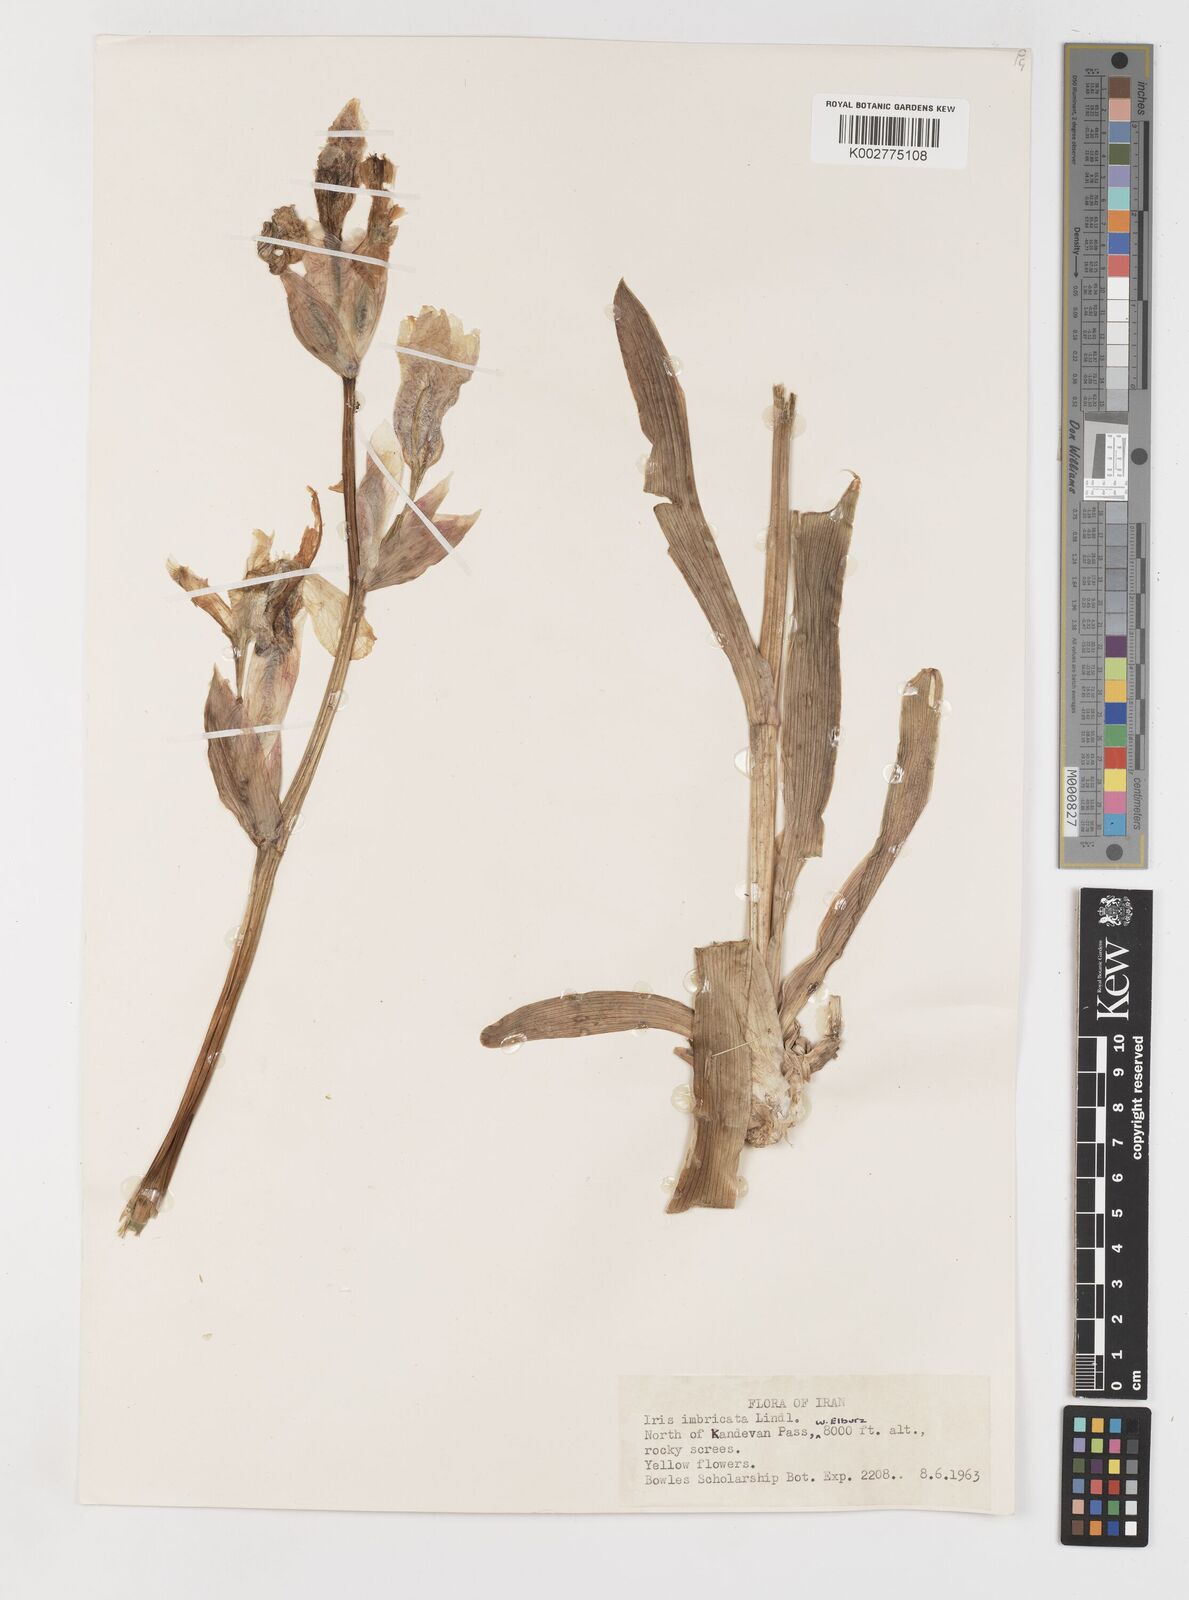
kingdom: Plantae
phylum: Tracheophyta
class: Liliopsida
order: Asparagales
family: Iridaceae
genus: Iris
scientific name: Iris imbricata
